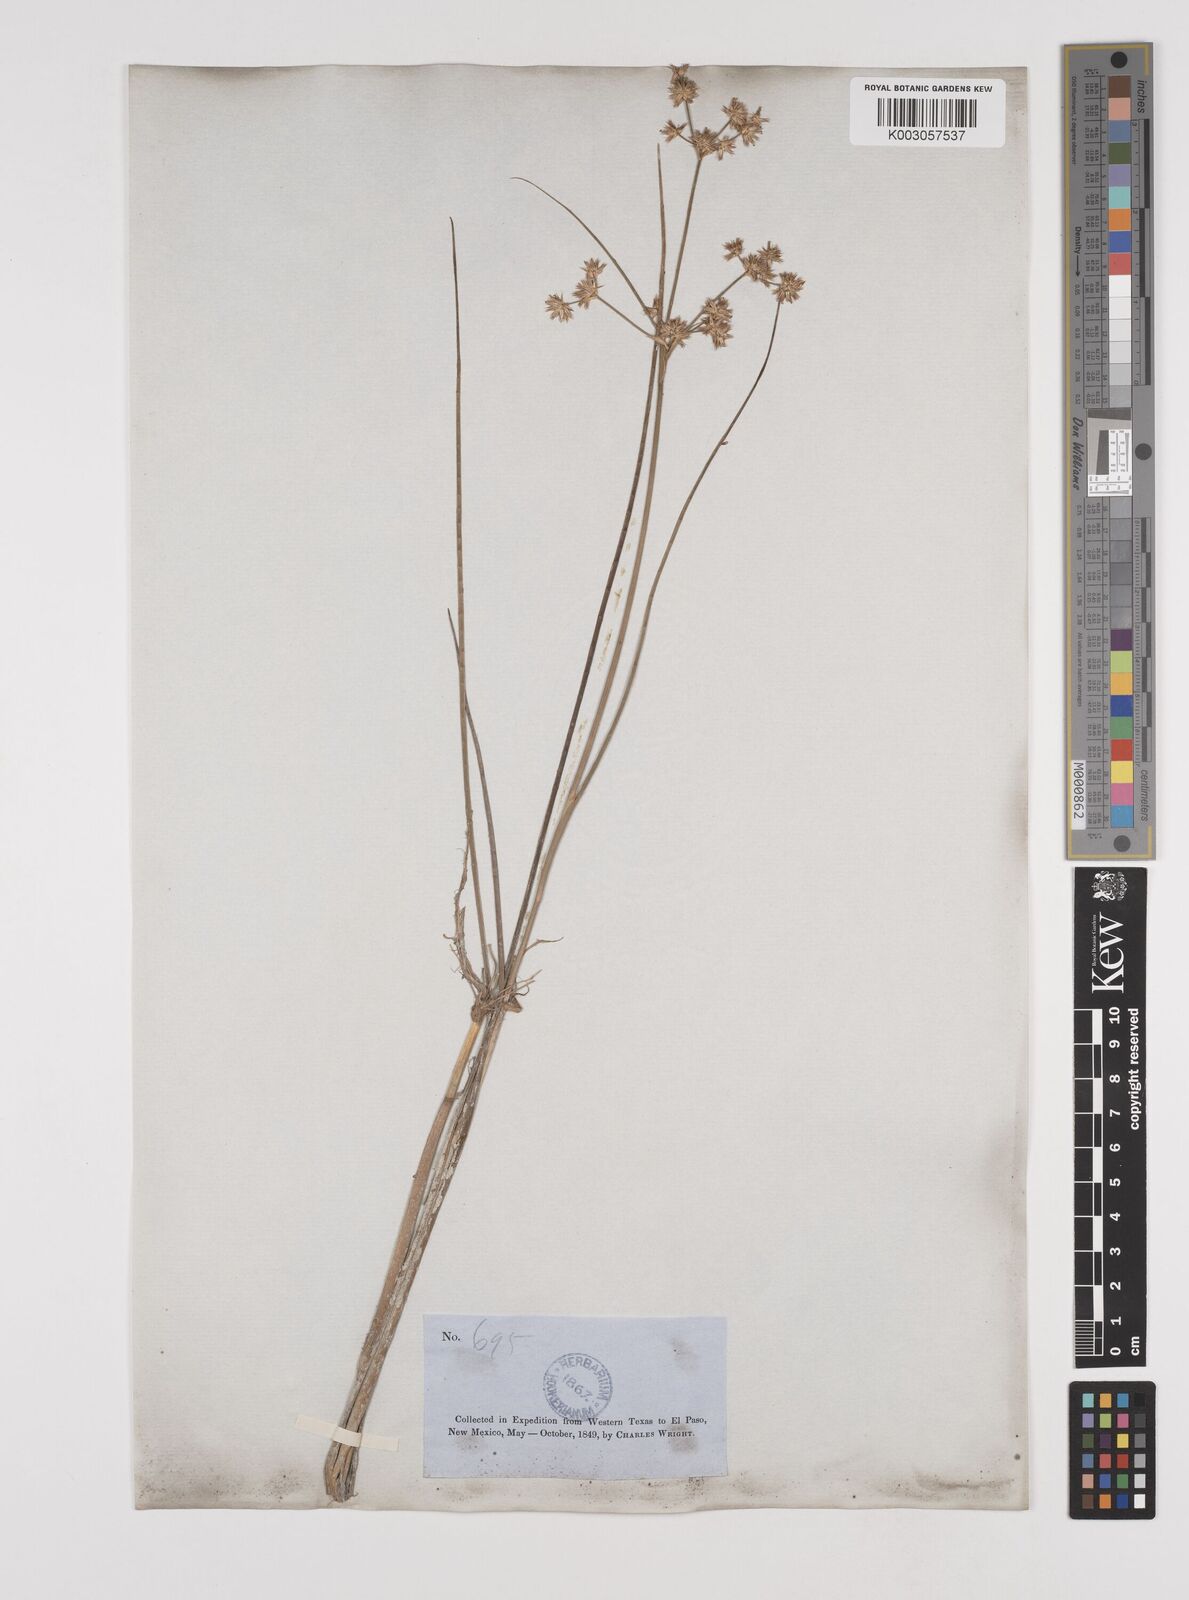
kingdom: Plantae
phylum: Tracheophyta
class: Liliopsida
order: Poales
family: Juncaceae
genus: Juncus
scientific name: Juncus acuminatus
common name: Knotty-leaved rush
